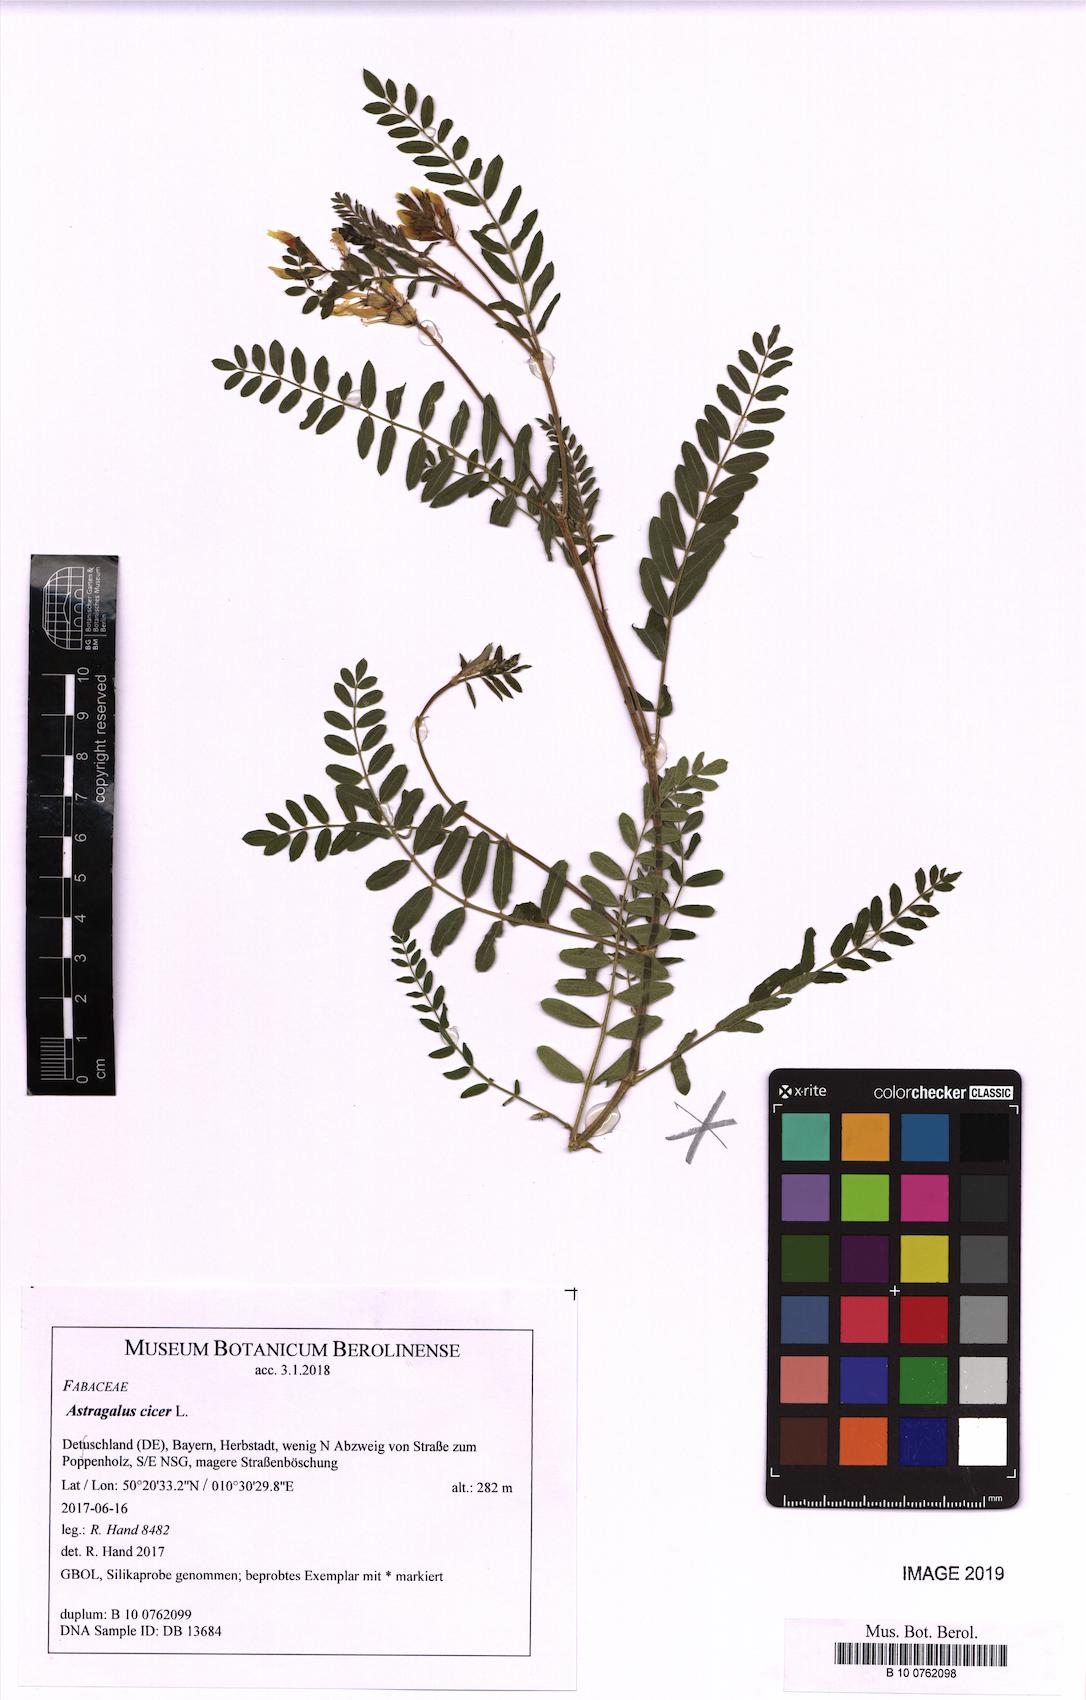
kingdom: Plantae
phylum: Tracheophyta
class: Magnoliopsida
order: Fabales
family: Fabaceae
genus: Astragalus
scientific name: Astragalus cicer
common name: Chick-pea milk-vetch
